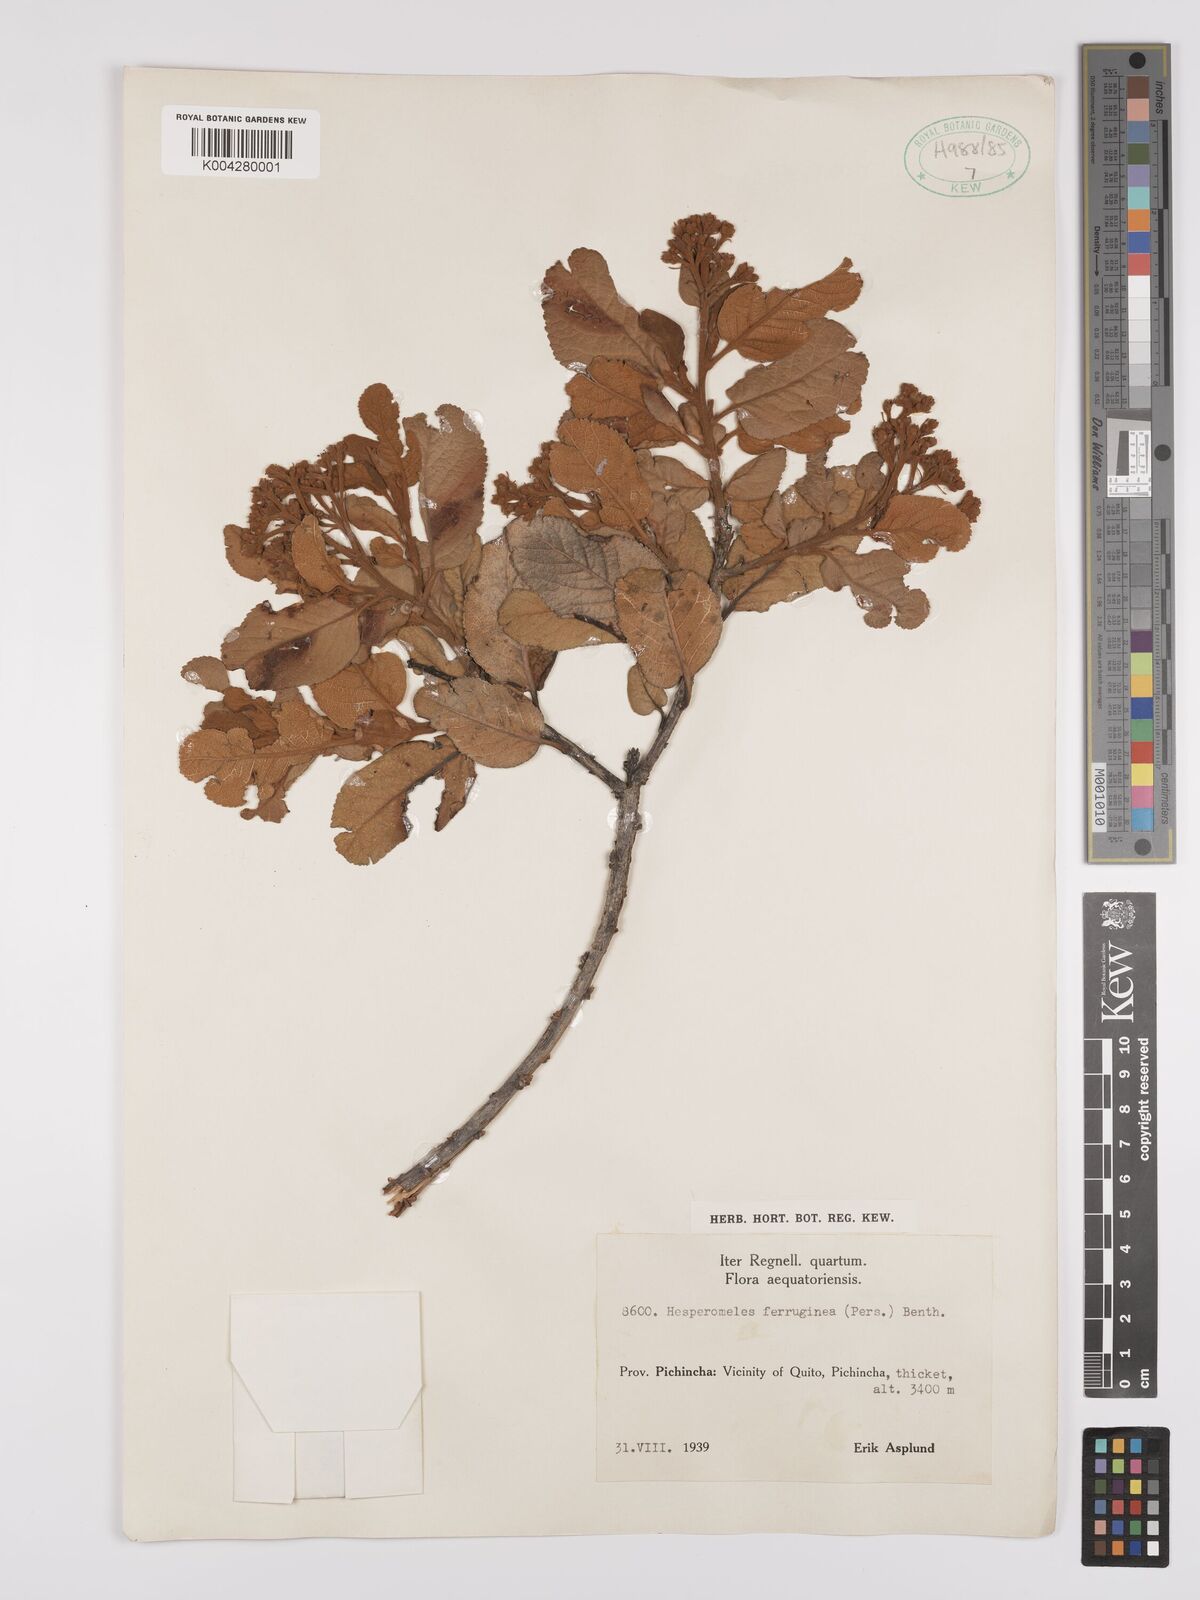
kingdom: Plantae
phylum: Tracheophyta
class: Magnoliopsida
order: Rosales
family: Rosaceae
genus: Hesperomeles
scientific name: Hesperomeles ferruginea
